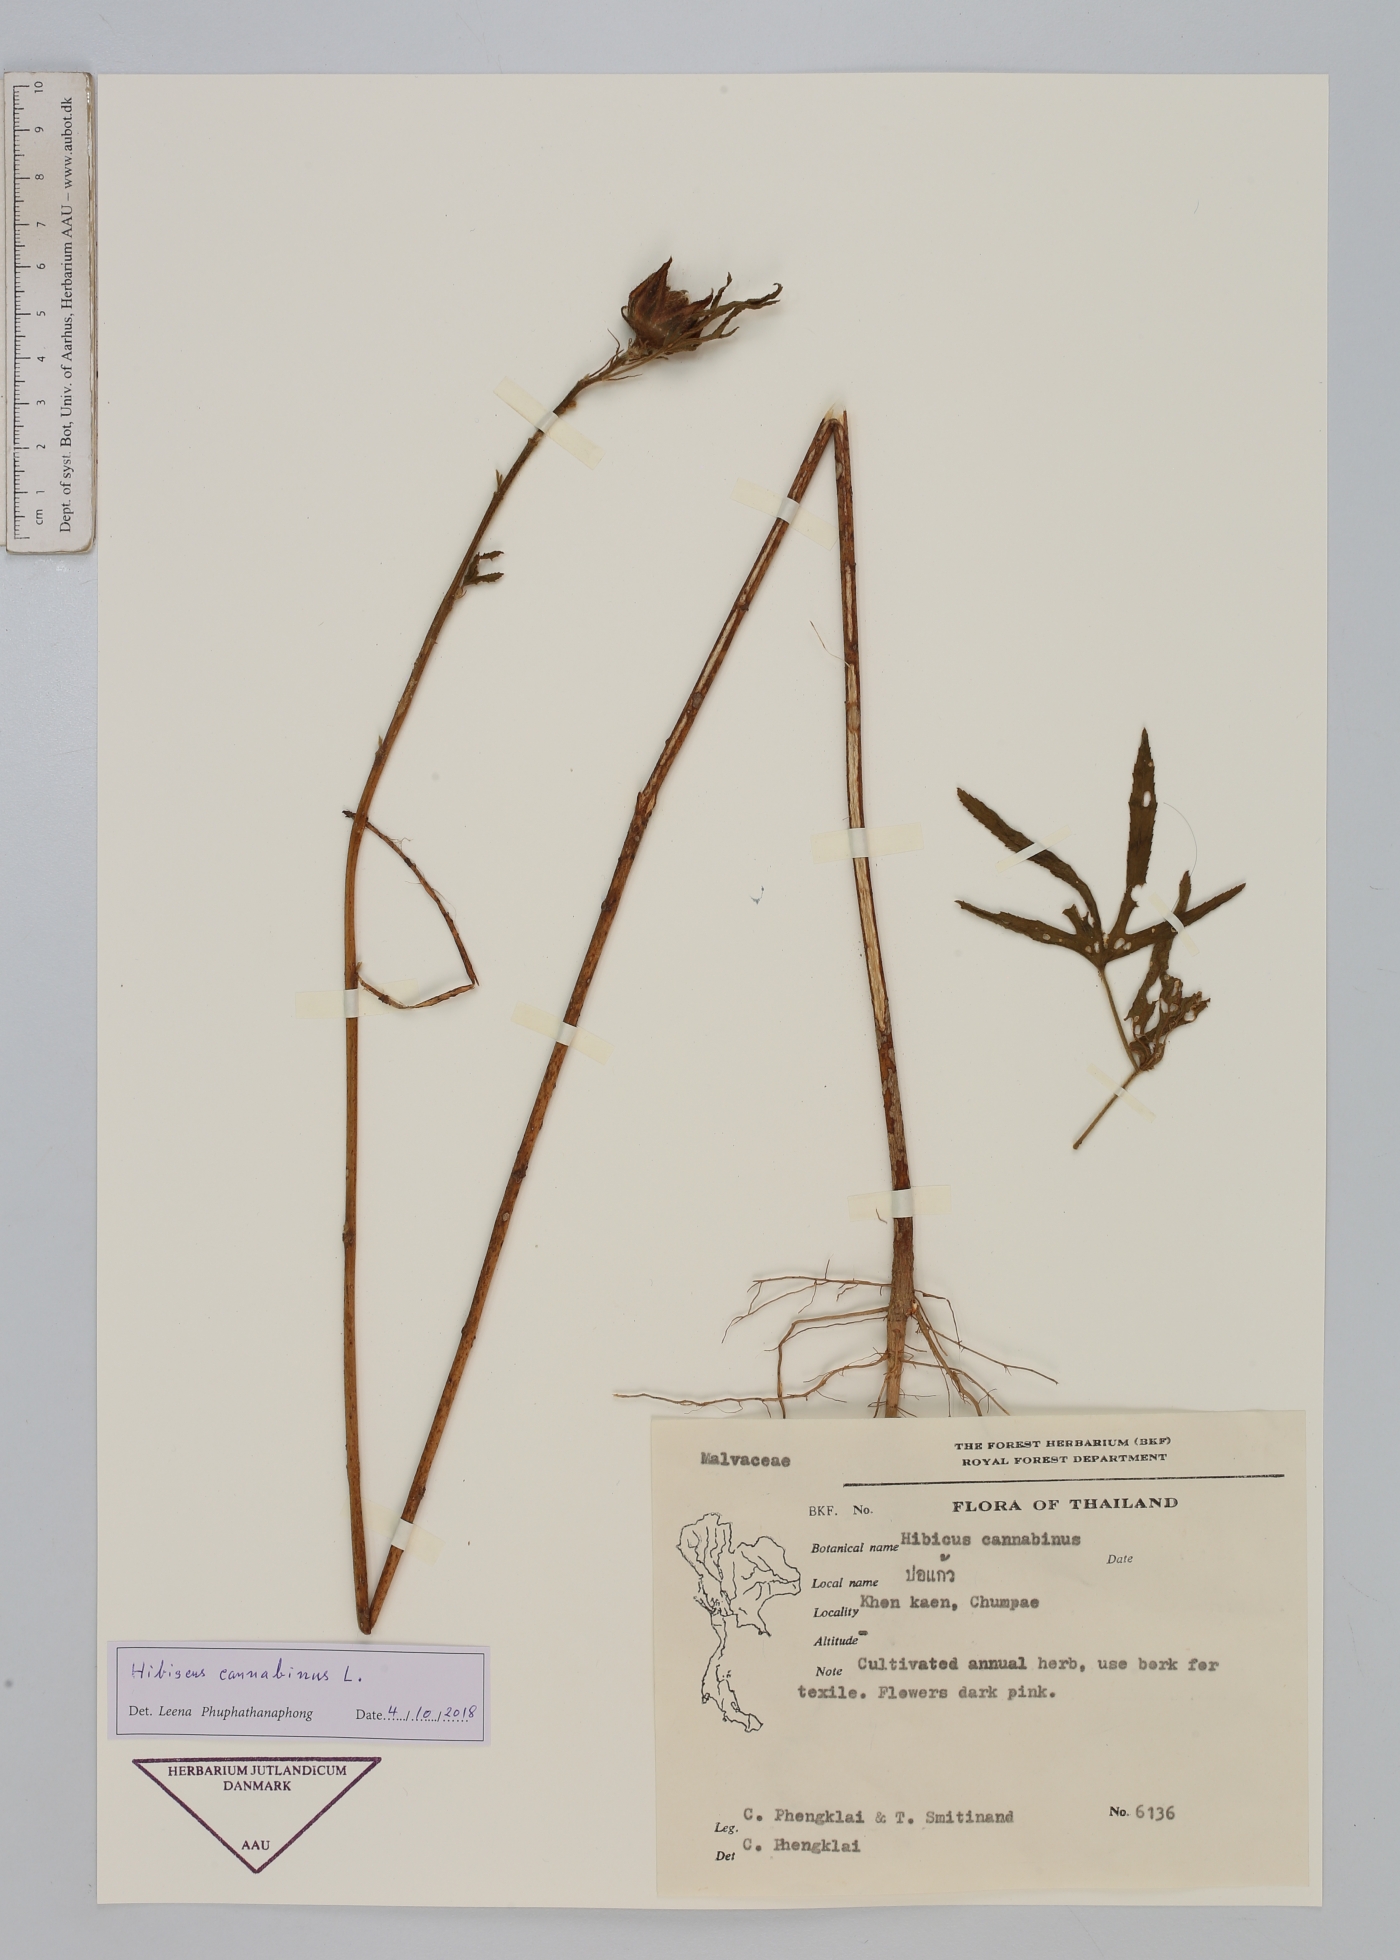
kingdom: Plantae
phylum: Tracheophyta
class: Magnoliopsida
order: Malvales
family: Malvaceae
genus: Hibiscus
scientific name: Hibiscus cannabinus
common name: Brown indianhemp
